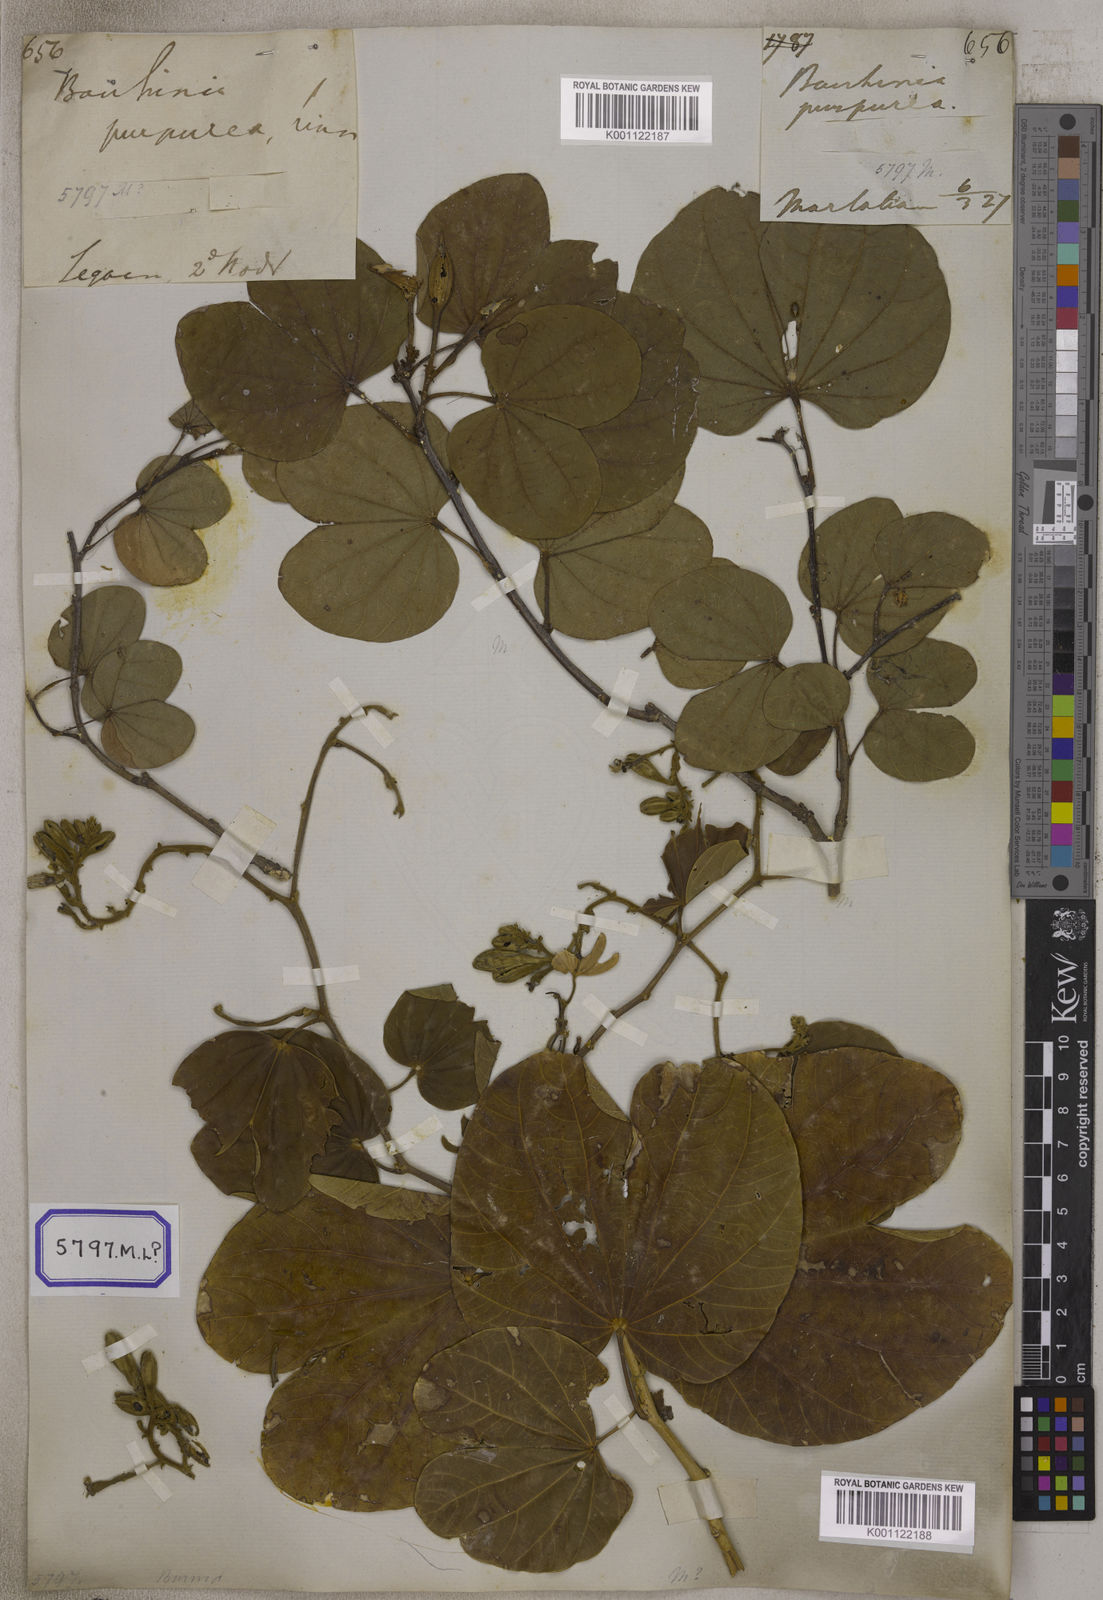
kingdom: Plantae
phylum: Tracheophyta
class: Magnoliopsida
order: Fabales
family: Fabaceae
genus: Bauhinia
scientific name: Bauhinia
